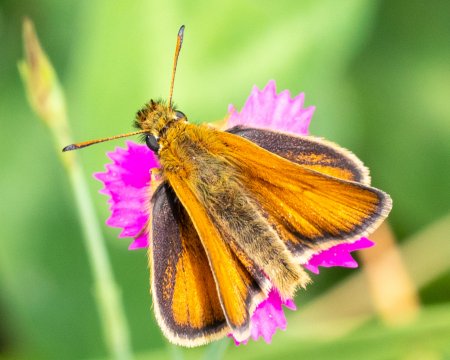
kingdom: Animalia
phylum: Arthropoda
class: Insecta
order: Lepidoptera
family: Hesperiidae
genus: Thymelicus
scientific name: Thymelicus lineola
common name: European Skipper
